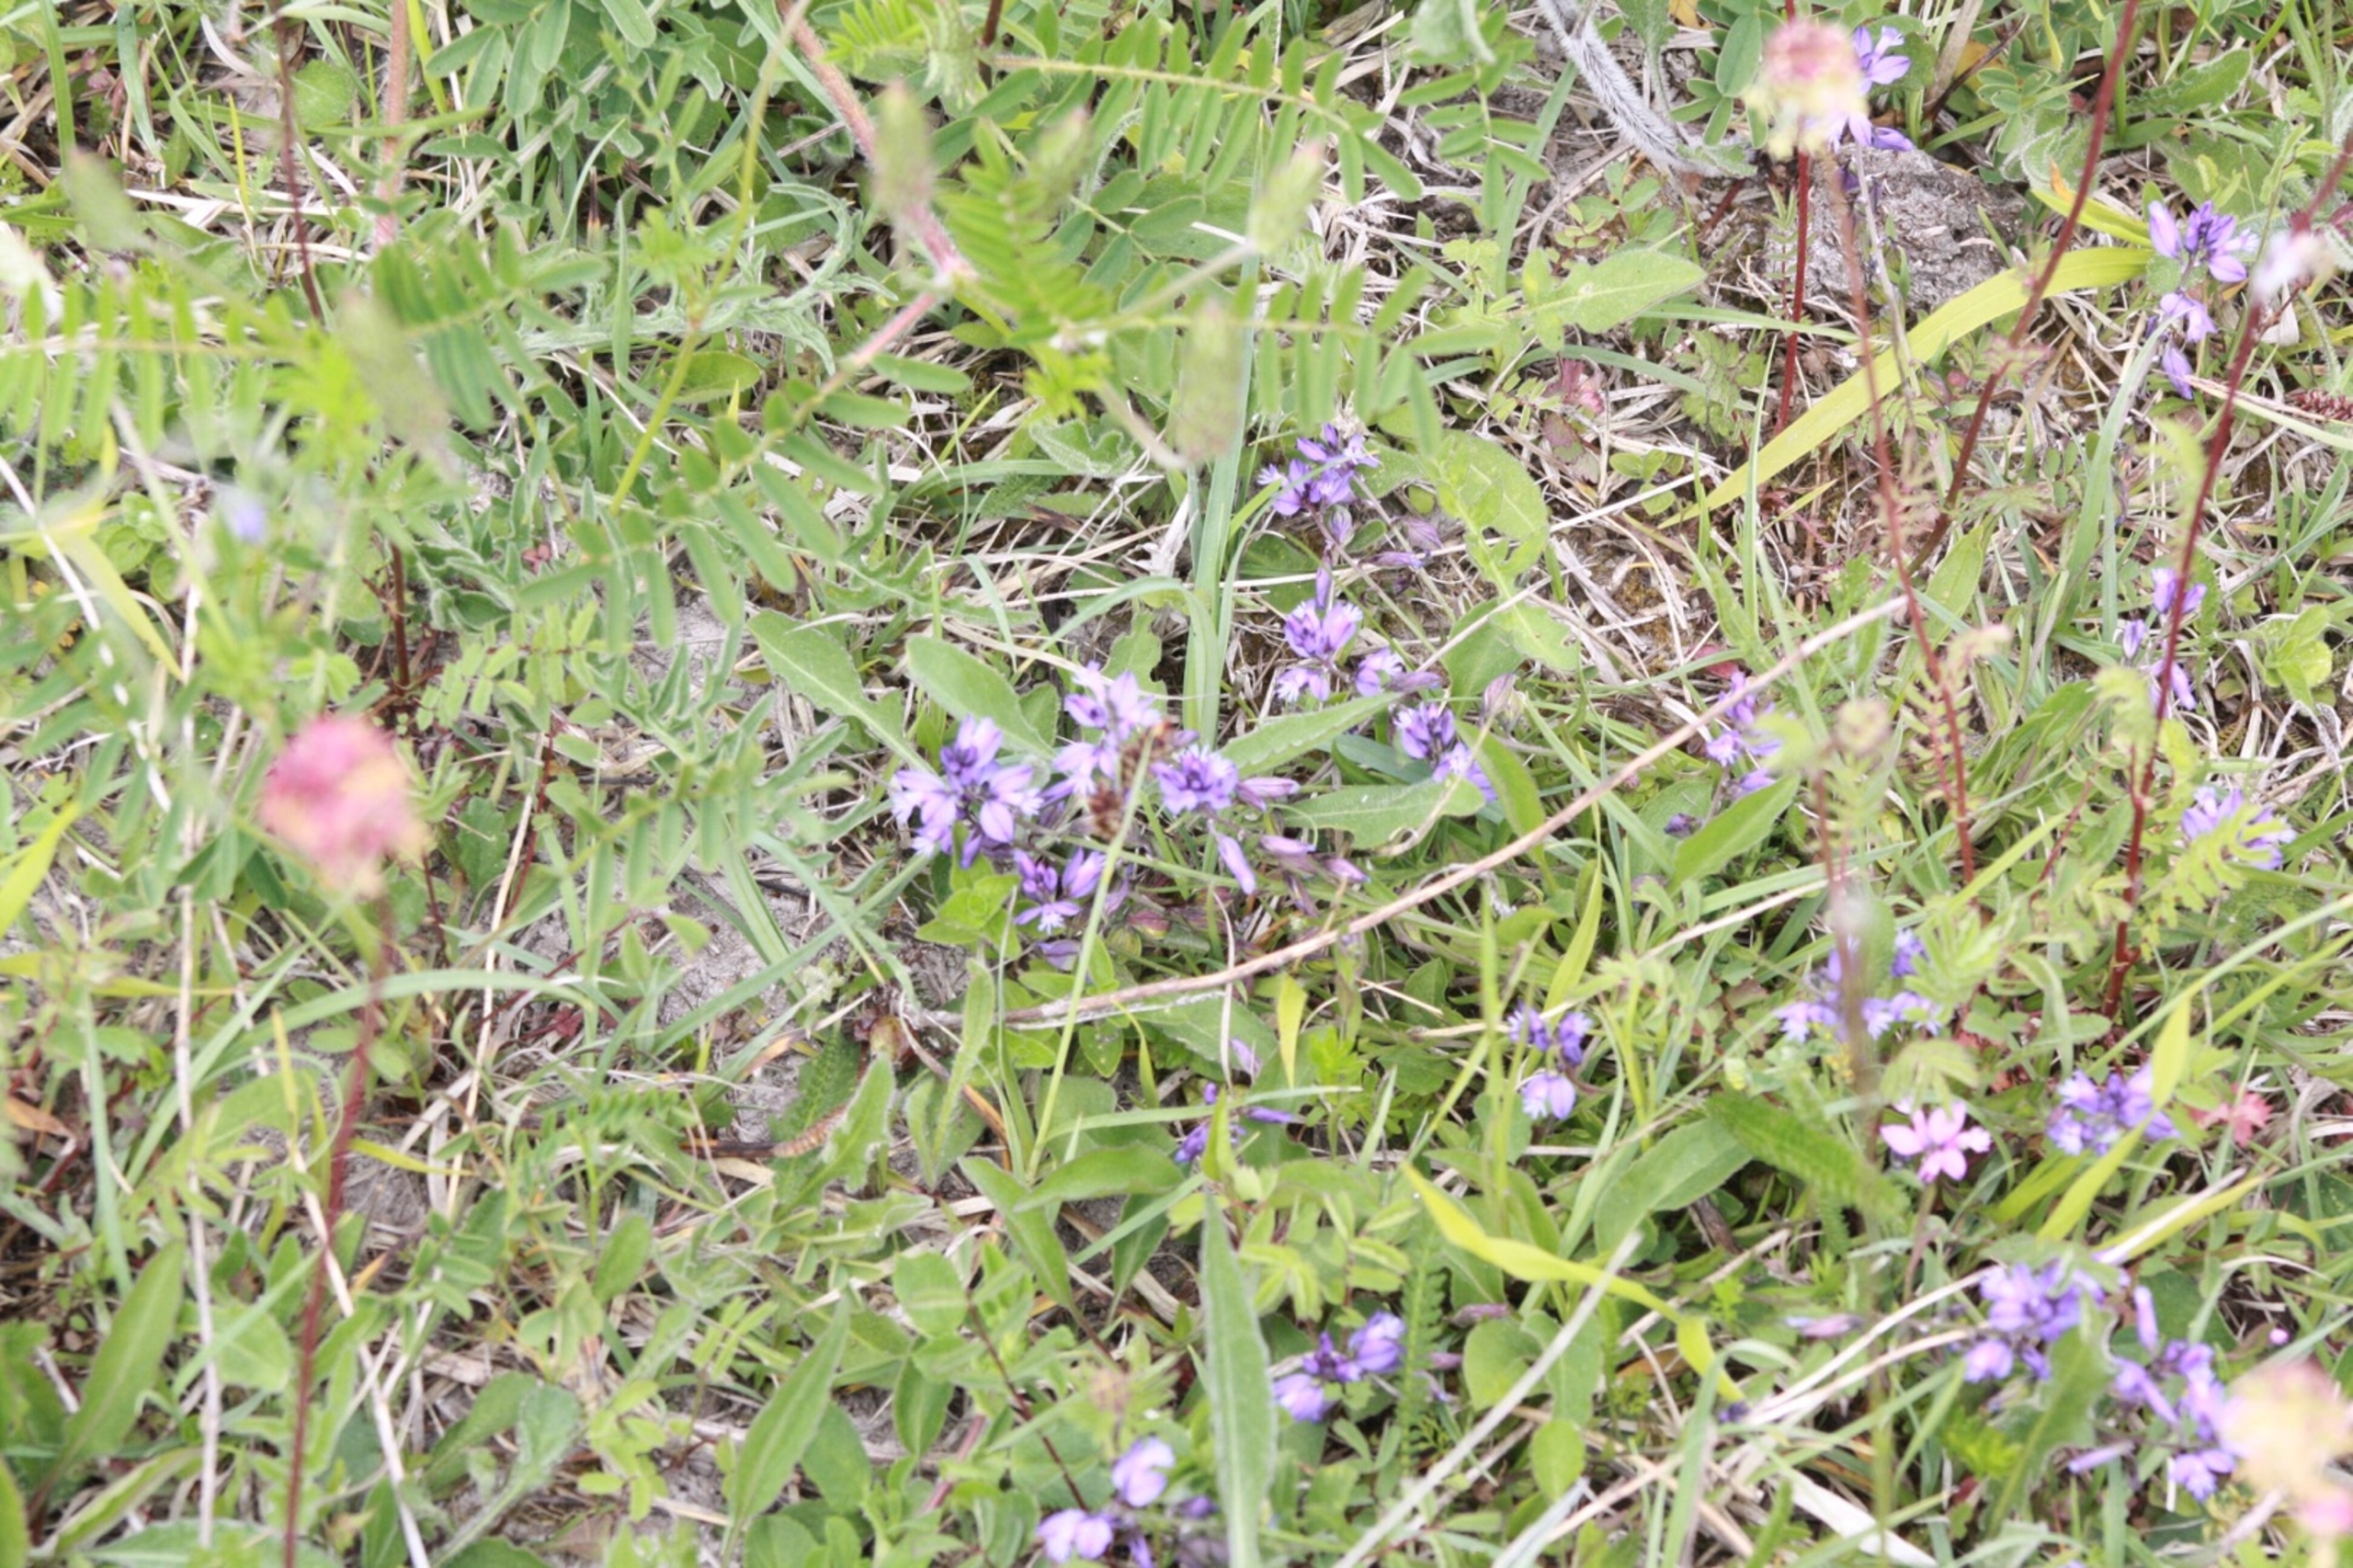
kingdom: Plantae
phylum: Tracheophyta
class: Magnoliopsida
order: Fabales
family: Polygalaceae
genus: Polygala
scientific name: Polygala vulgaris
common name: Almindelig mælkeurt
